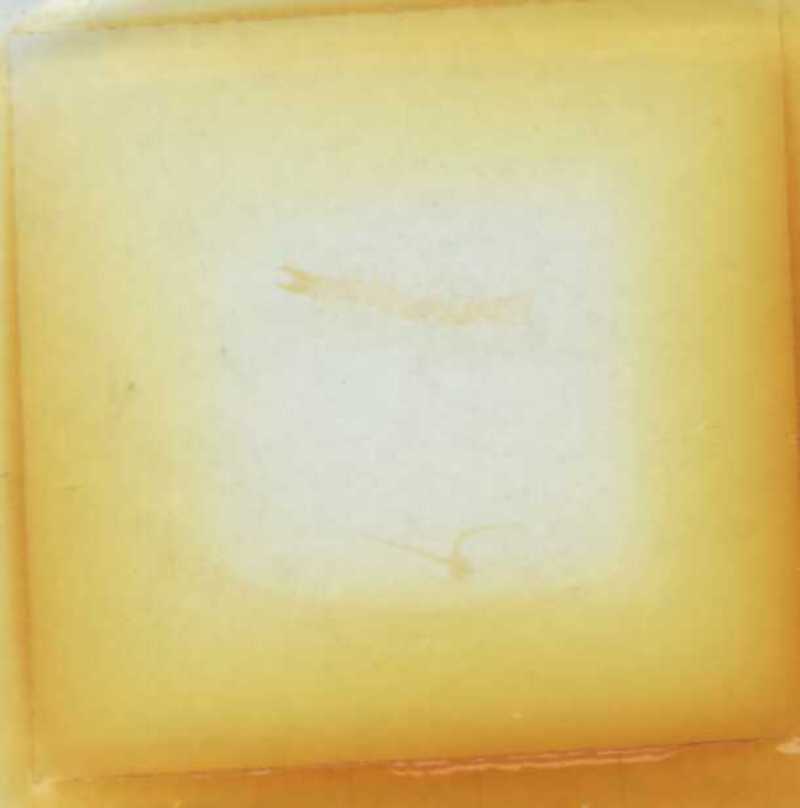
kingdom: Animalia
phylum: Arthropoda
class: Chilopoda
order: Geophilomorpha
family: Geophilidae
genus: Geophilus
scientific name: Geophilus minimus
